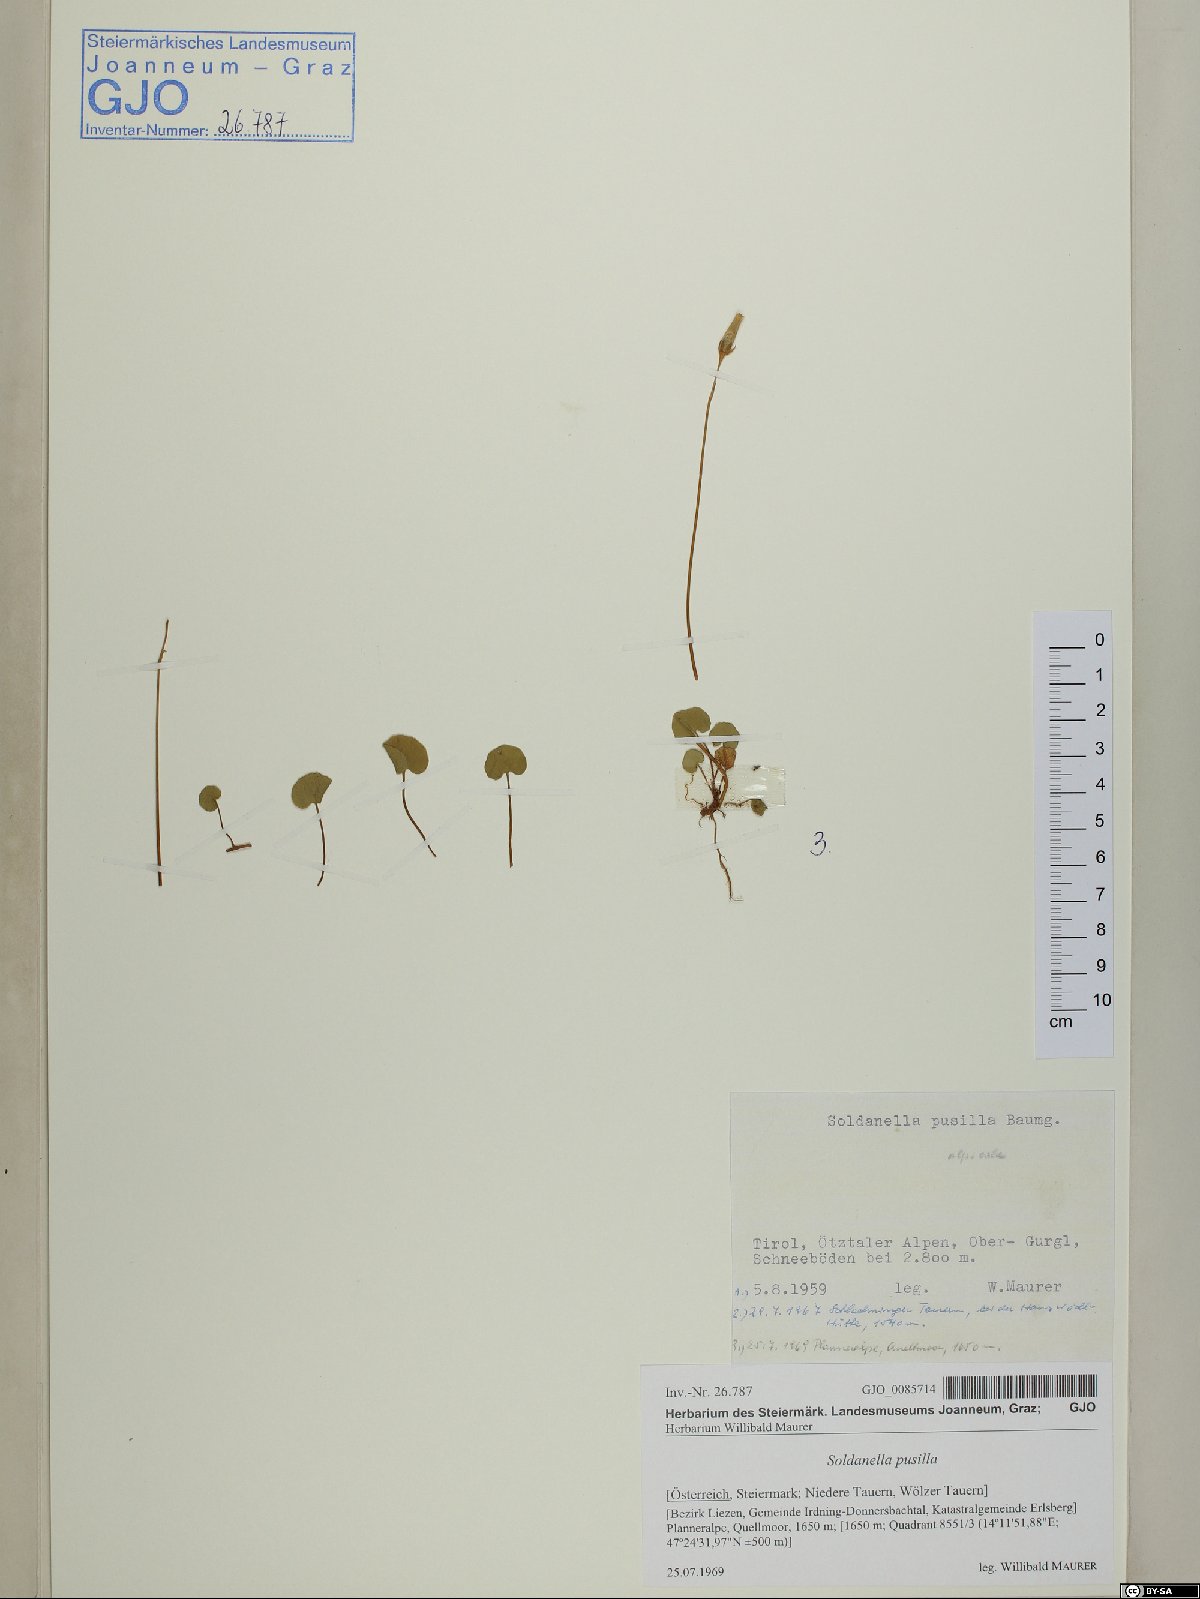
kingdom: Plantae
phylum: Tracheophyta
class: Magnoliopsida
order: Ericales
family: Primulaceae
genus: Soldanella
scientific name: Soldanella pusilla
